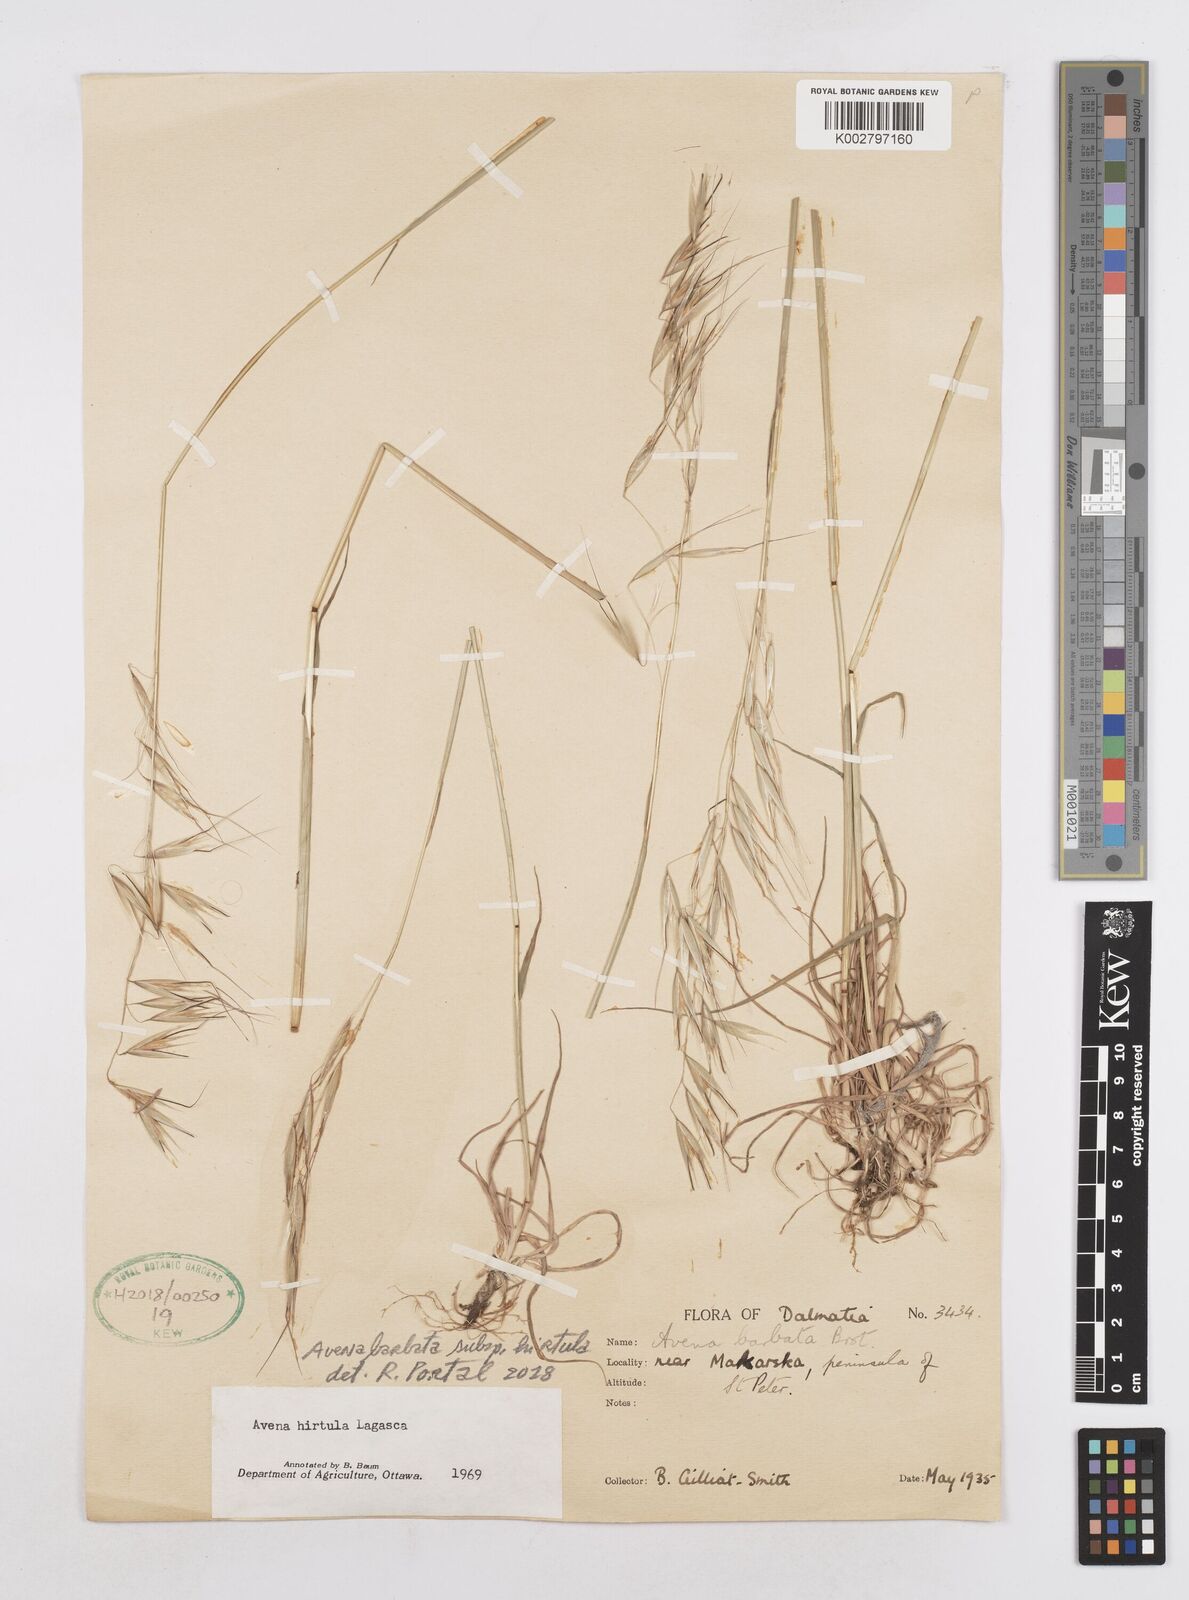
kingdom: Plantae
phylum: Tracheophyta
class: Liliopsida
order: Poales
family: Poaceae
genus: Avena
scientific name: Avena
